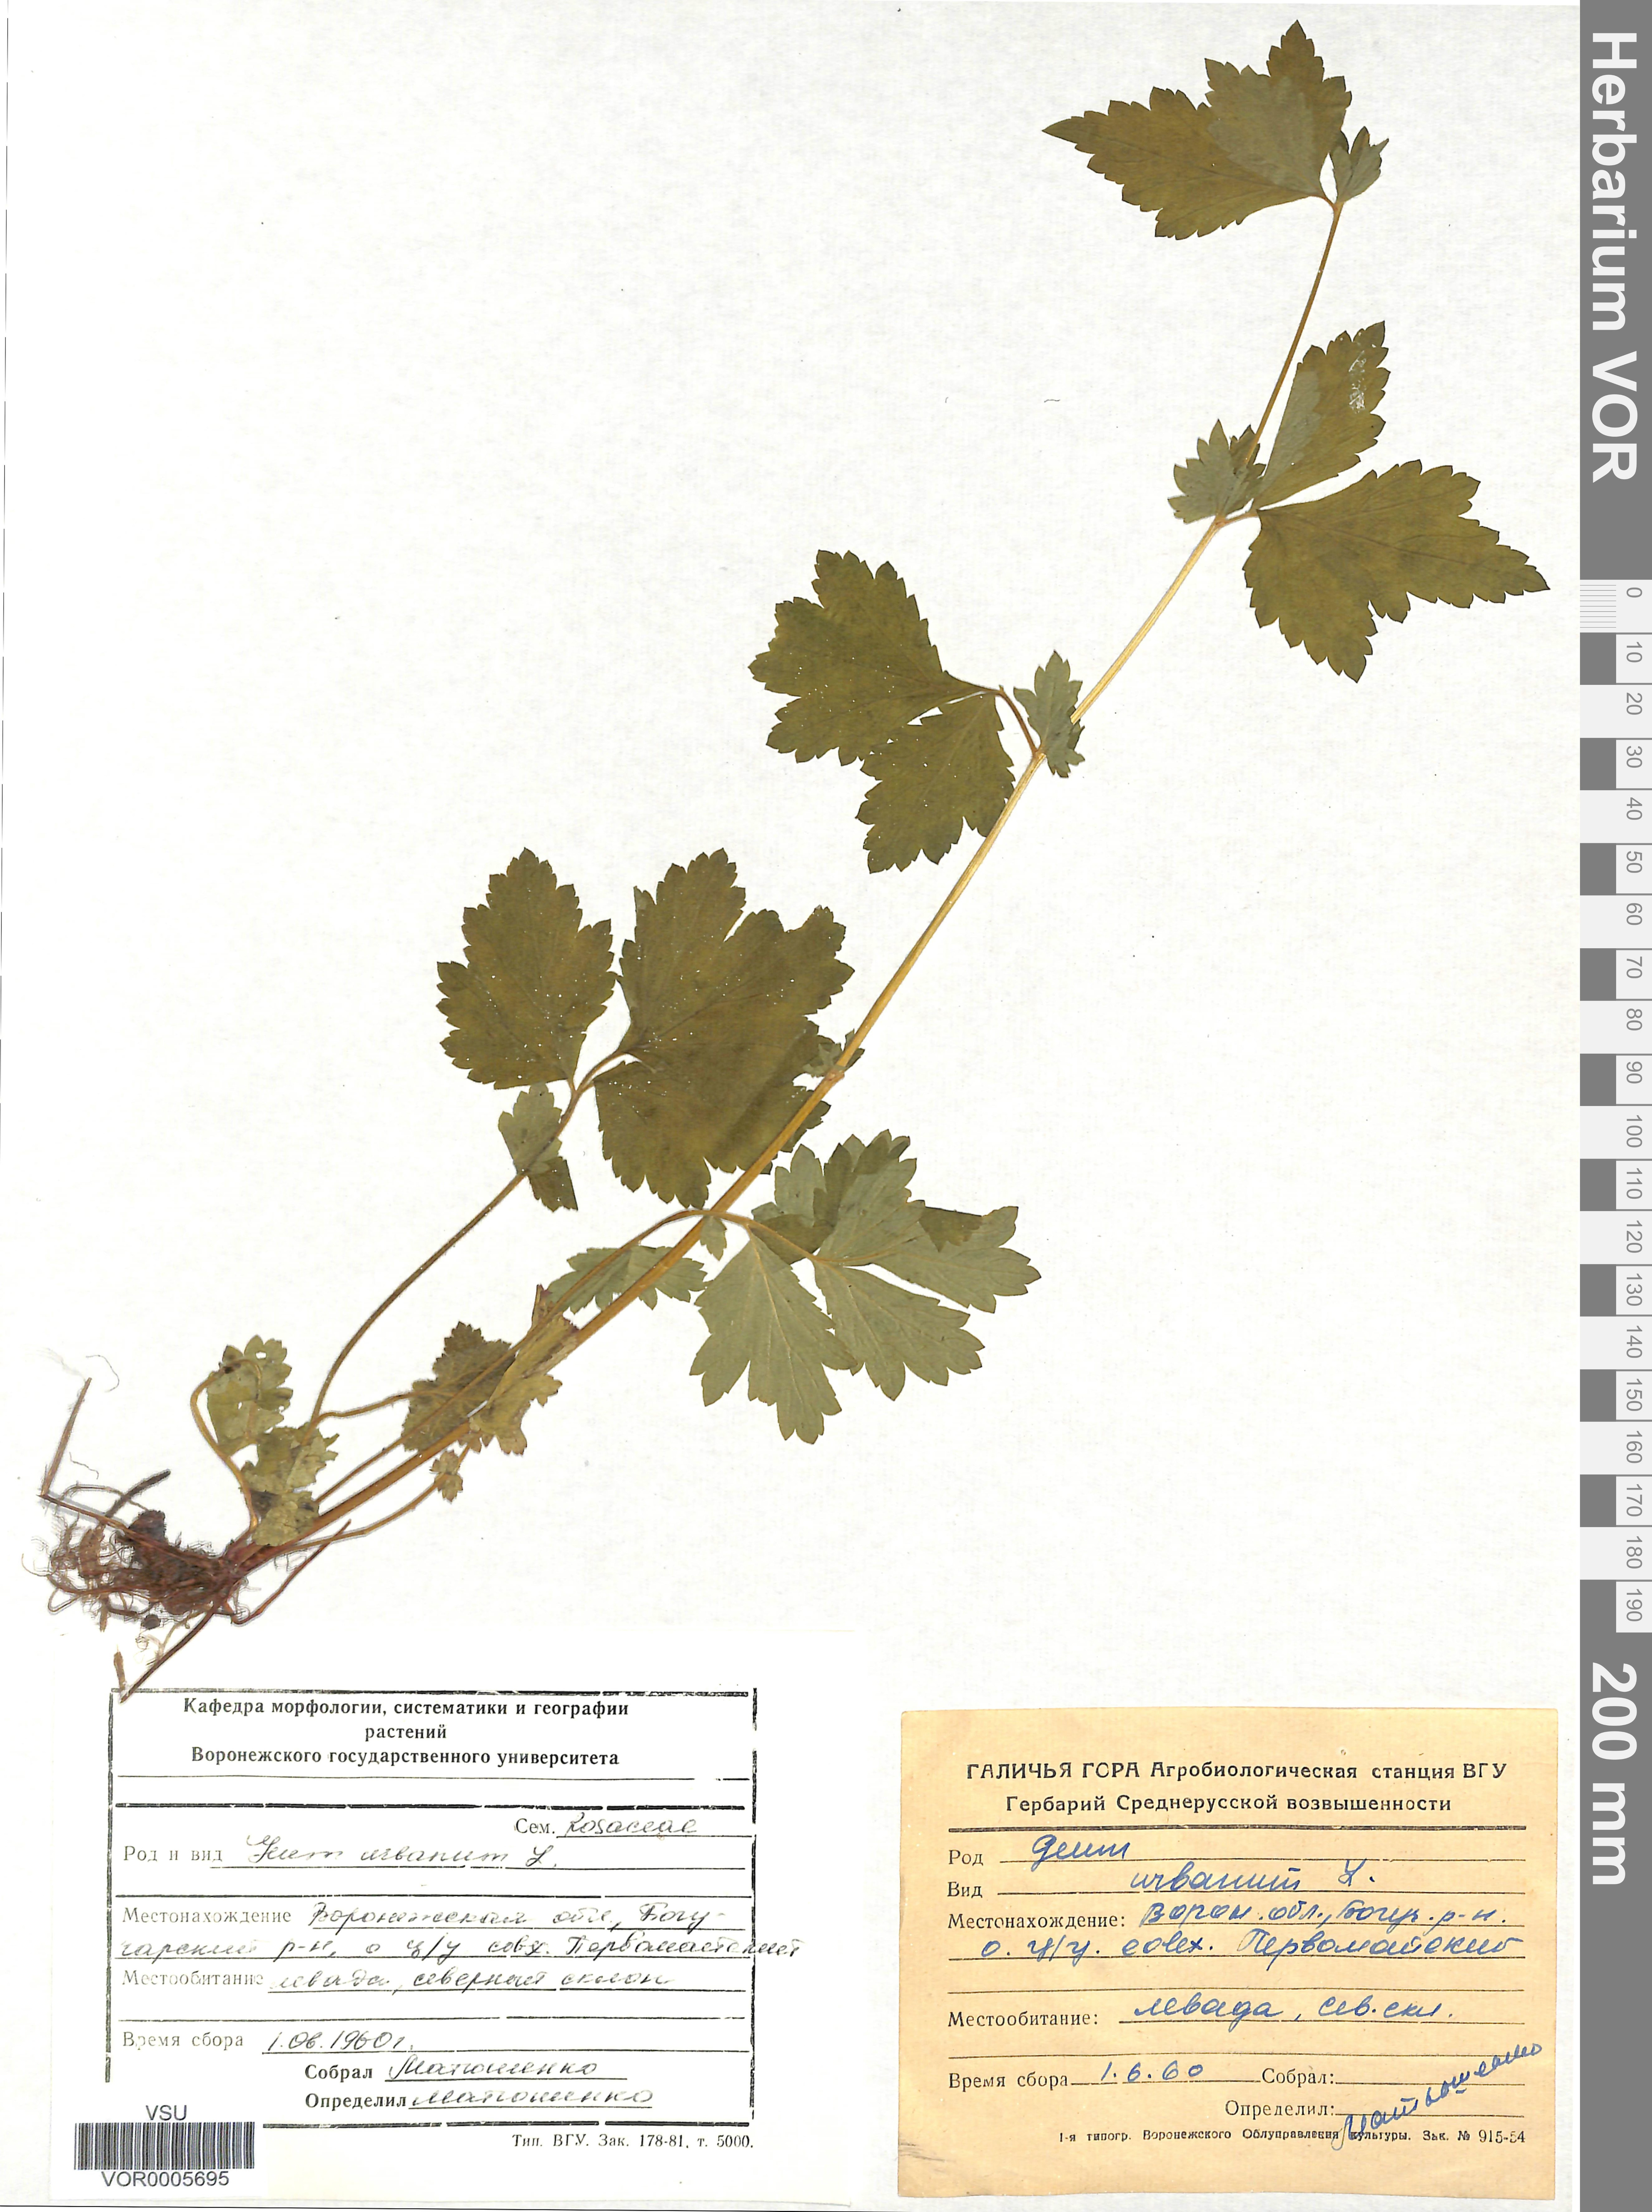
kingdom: Plantae
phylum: Tracheophyta
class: Magnoliopsida
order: Rosales
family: Rosaceae
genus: Geum
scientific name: Geum urbanum
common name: Wood avens
